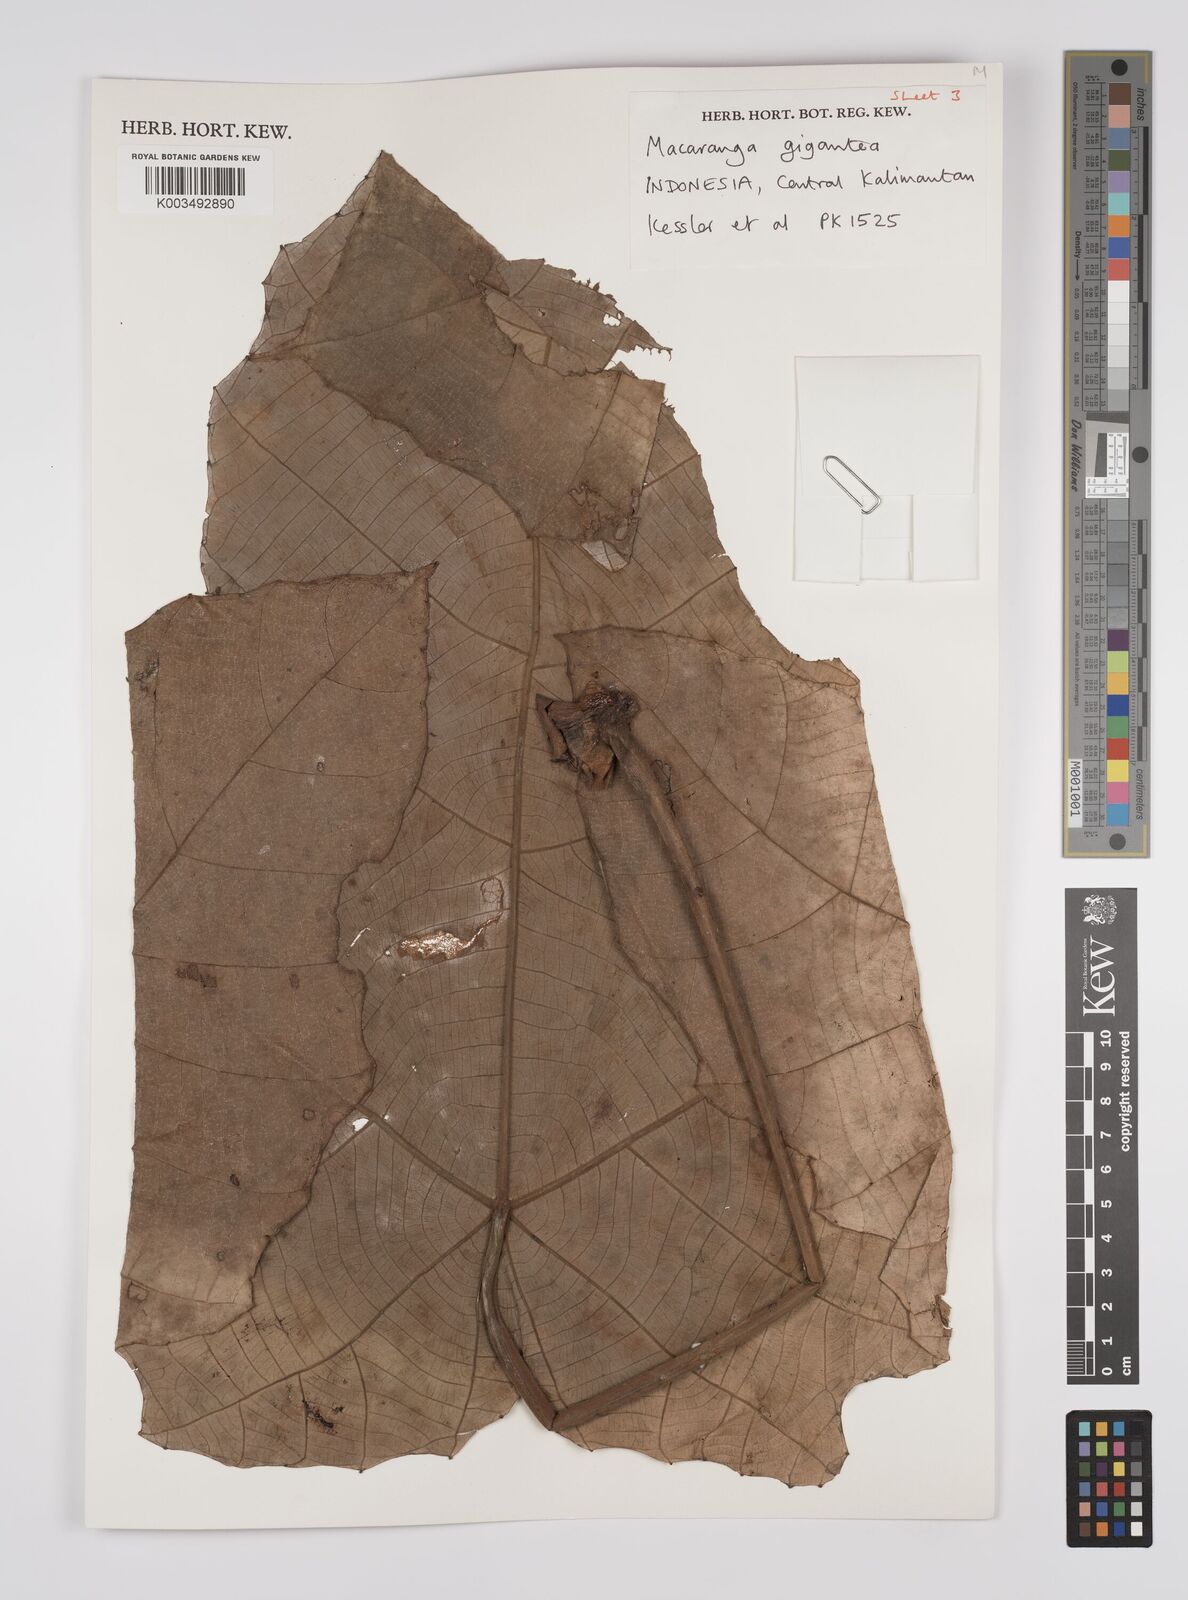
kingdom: Plantae
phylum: Tracheophyta
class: Magnoliopsida
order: Malpighiales
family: Euphorbiaceae
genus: Macaranga
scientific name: Macaranga gigantea
